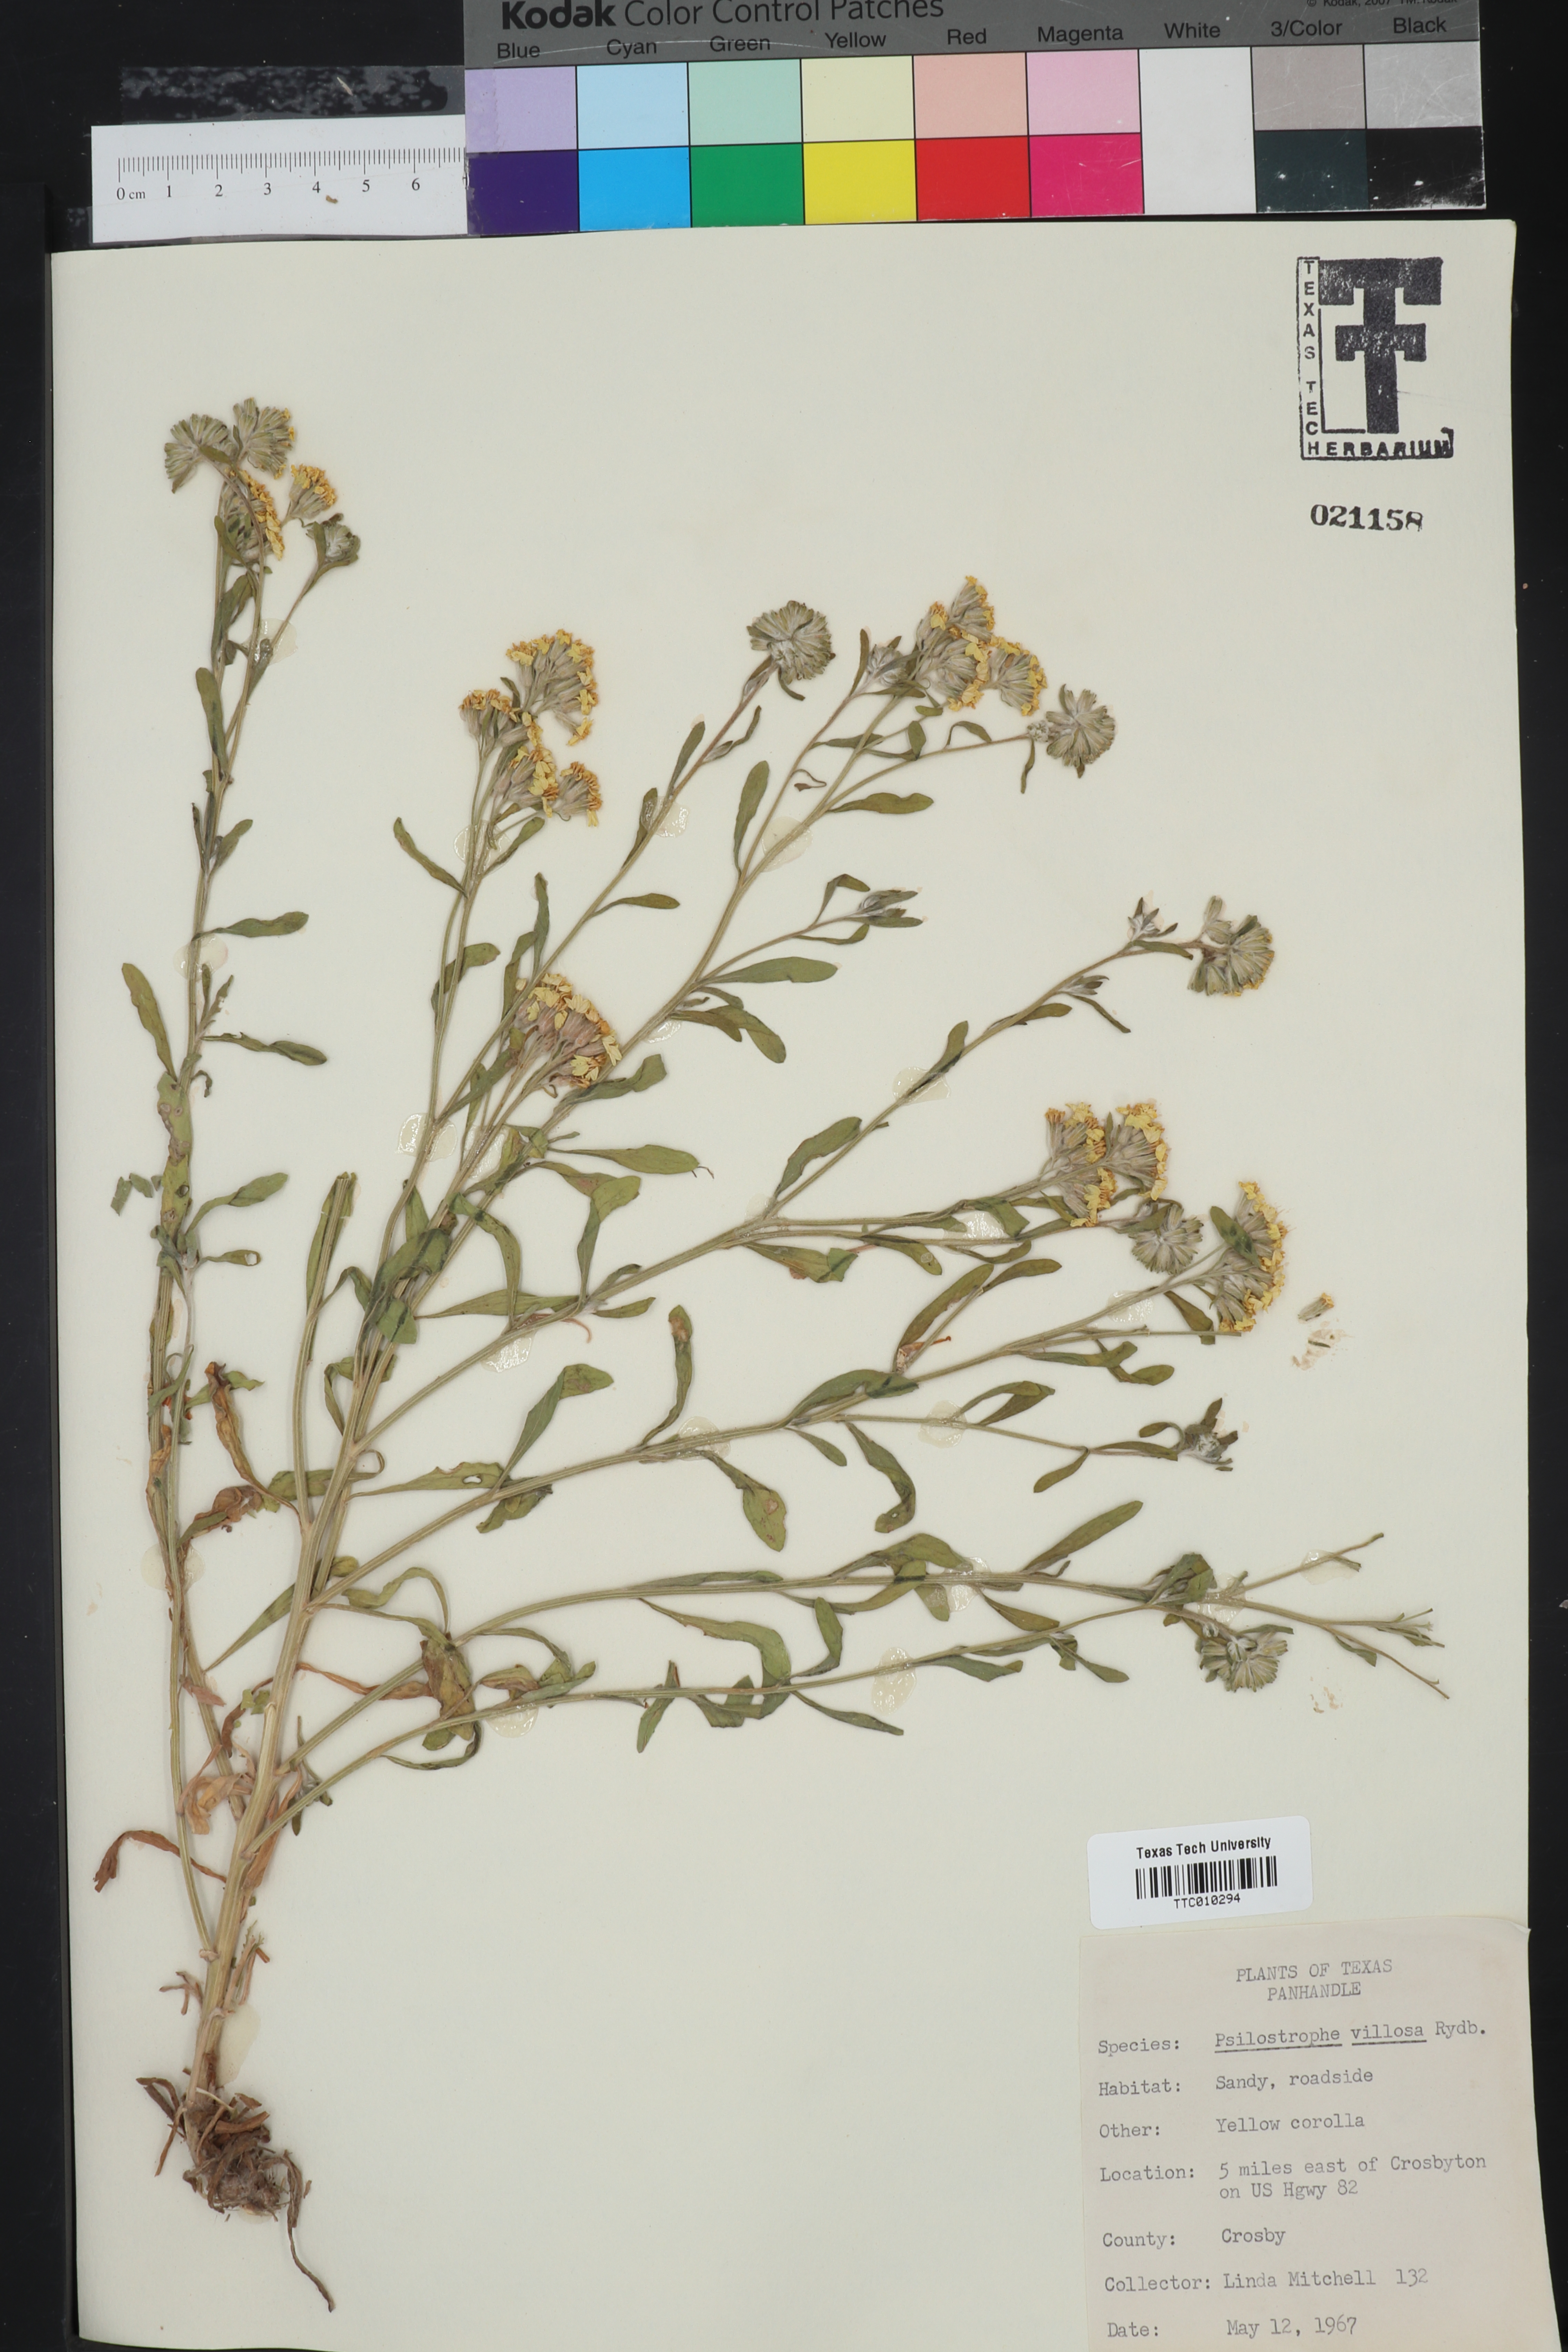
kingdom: Plantae
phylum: Tracheophyta
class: Magnoliopsida
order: Asterales
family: Asteraceae
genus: Psilostrophe
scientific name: Psilostrophe villosa
